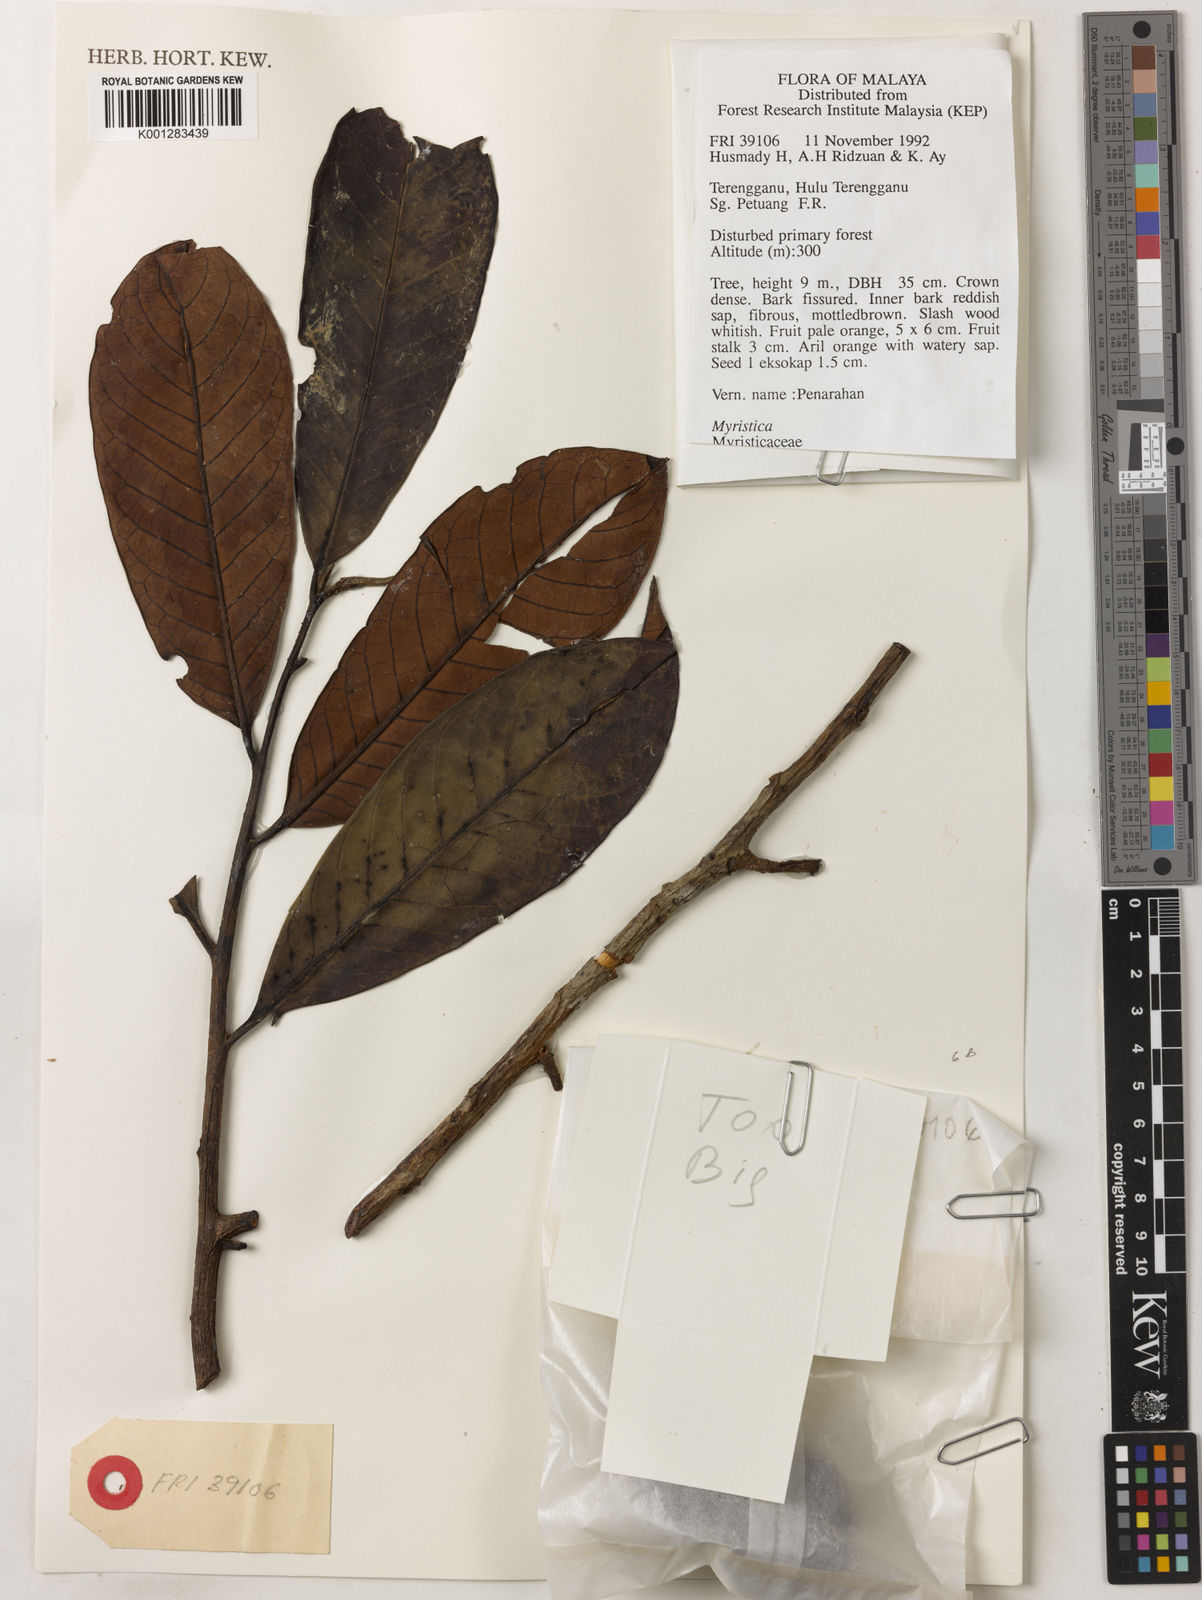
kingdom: Plantae
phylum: Tracheophyta
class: Magnoliopsida
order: Magnoliales
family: Myristicaceae
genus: Myristica
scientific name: Myristica
